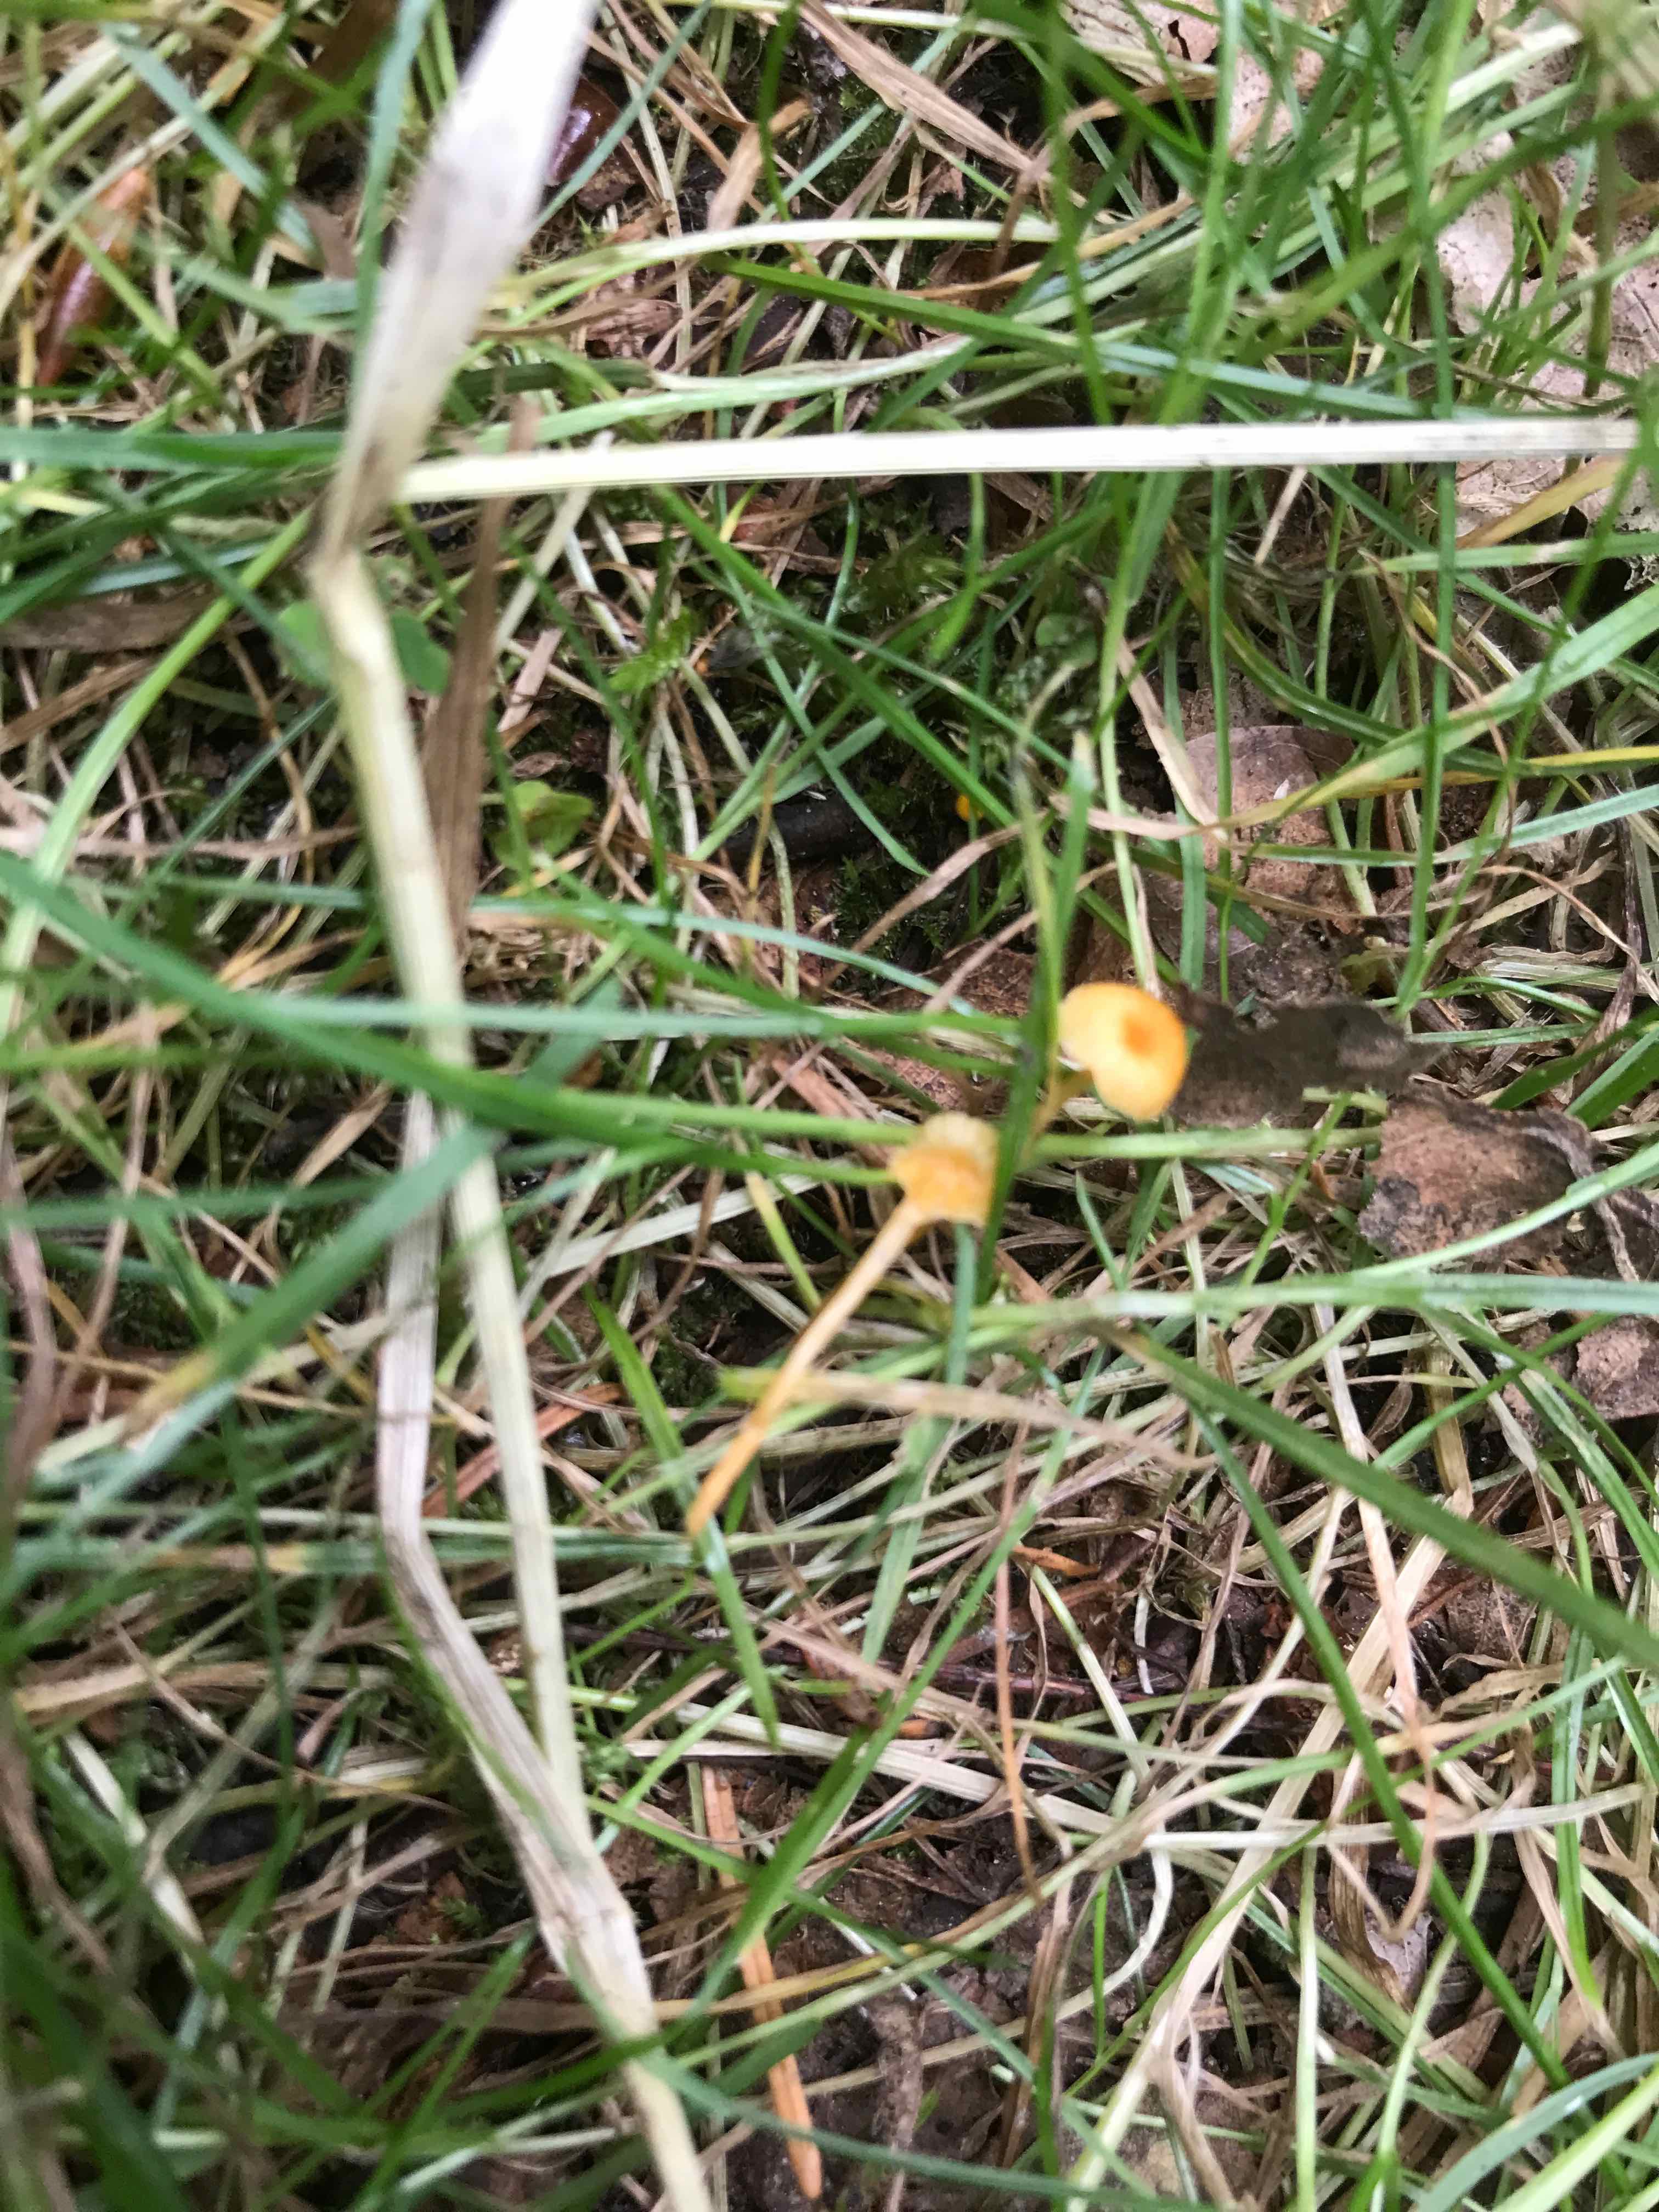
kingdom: Fungi
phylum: Basidiomycota
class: Agaricomycetes
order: Hymenochaetales
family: Rickenellaceae
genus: Rickenella
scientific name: Rickenella fibula
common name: orange mosnavlehat
